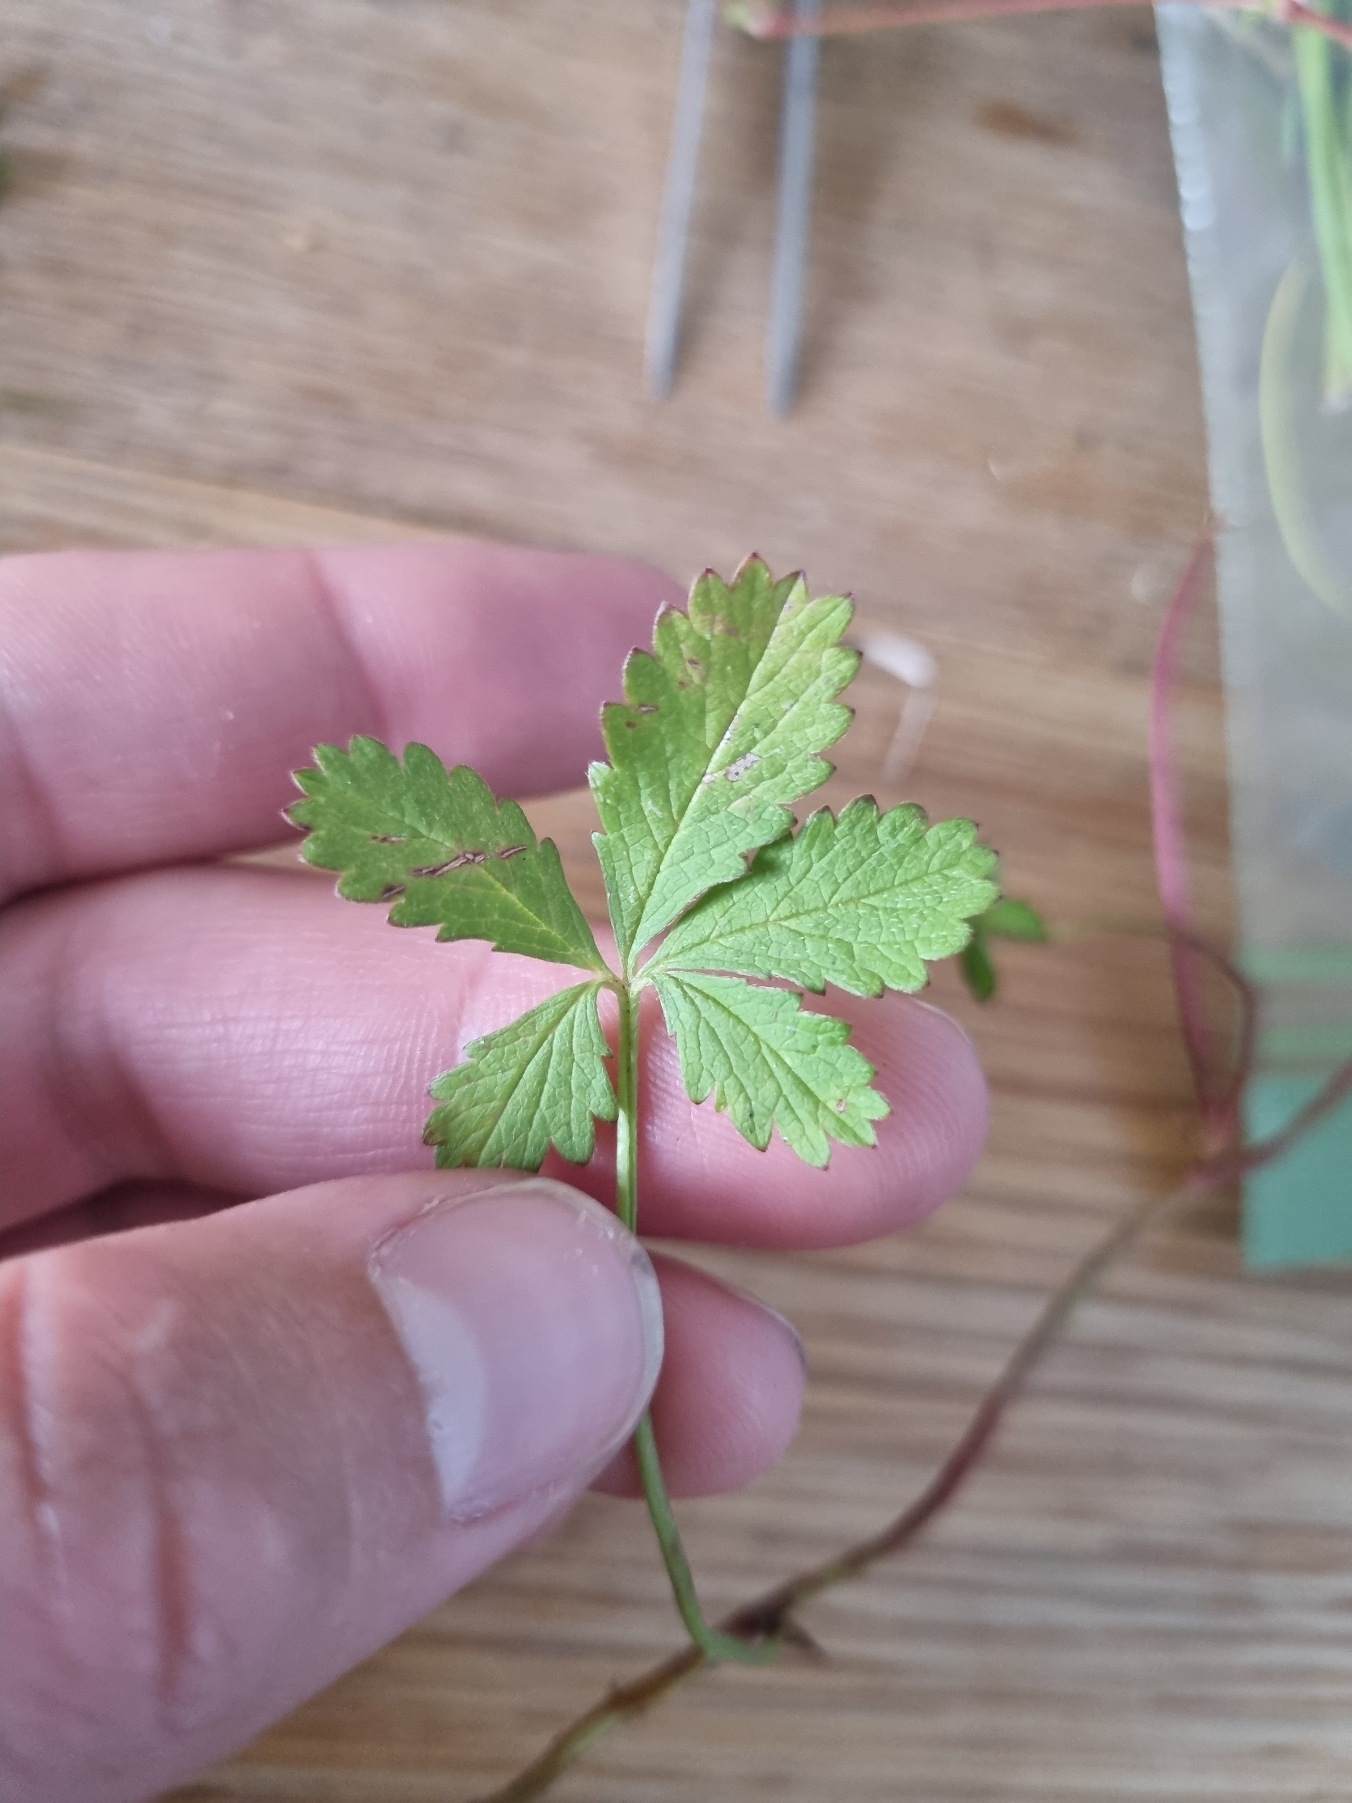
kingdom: Plantae
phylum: Tracheophyta
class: Magnoliopsida
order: Rosales
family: Rosaceae
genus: Potentilla
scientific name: Potentilla reptans
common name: Krybende potentil
